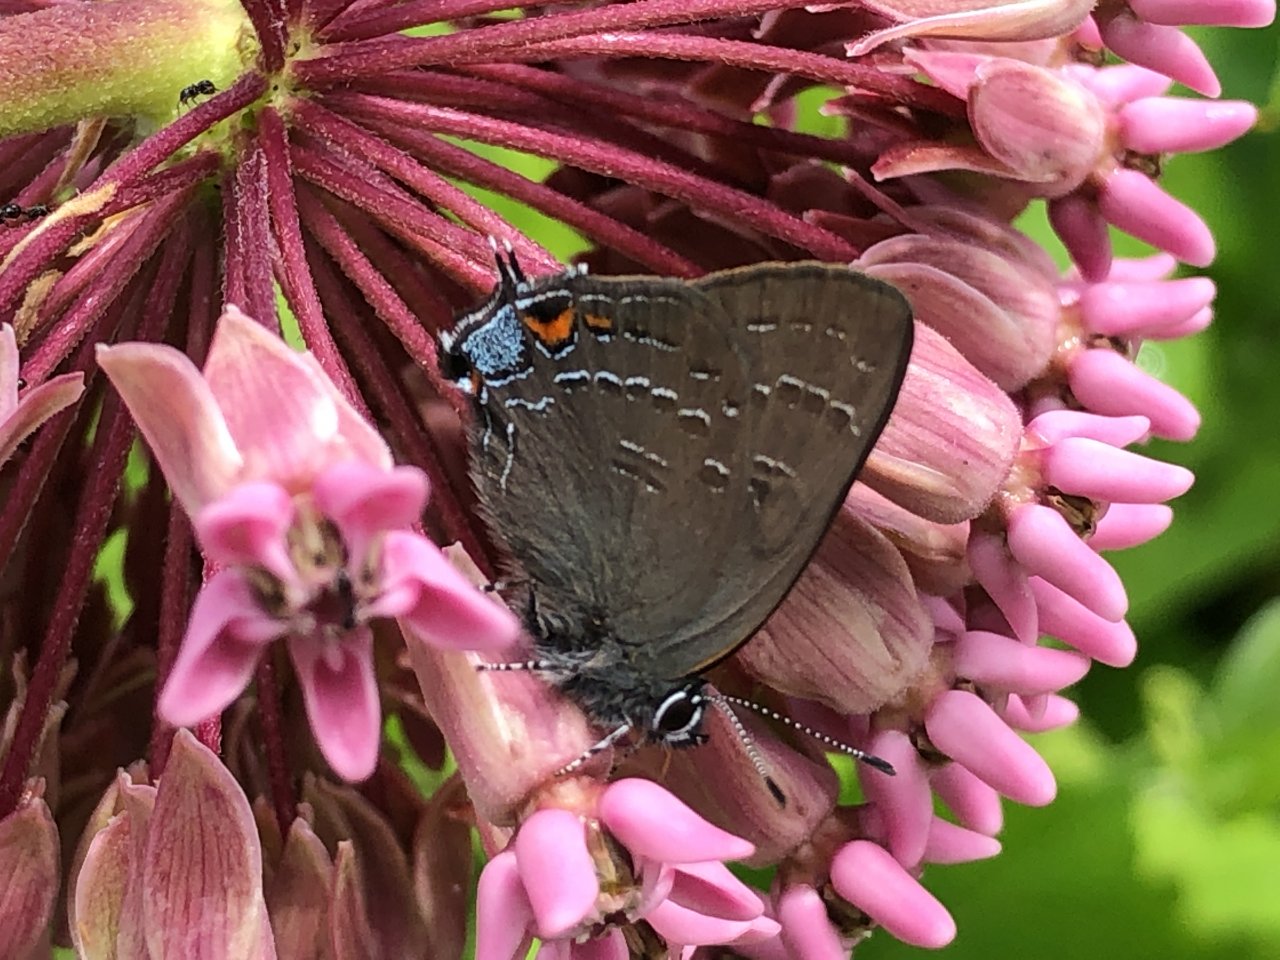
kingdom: Animalia
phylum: Arthropoda
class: Insecta
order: Lepidoptera
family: Lycaenidae
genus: Satyrium
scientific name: Satyrium calanus
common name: Banded Hairstreak
